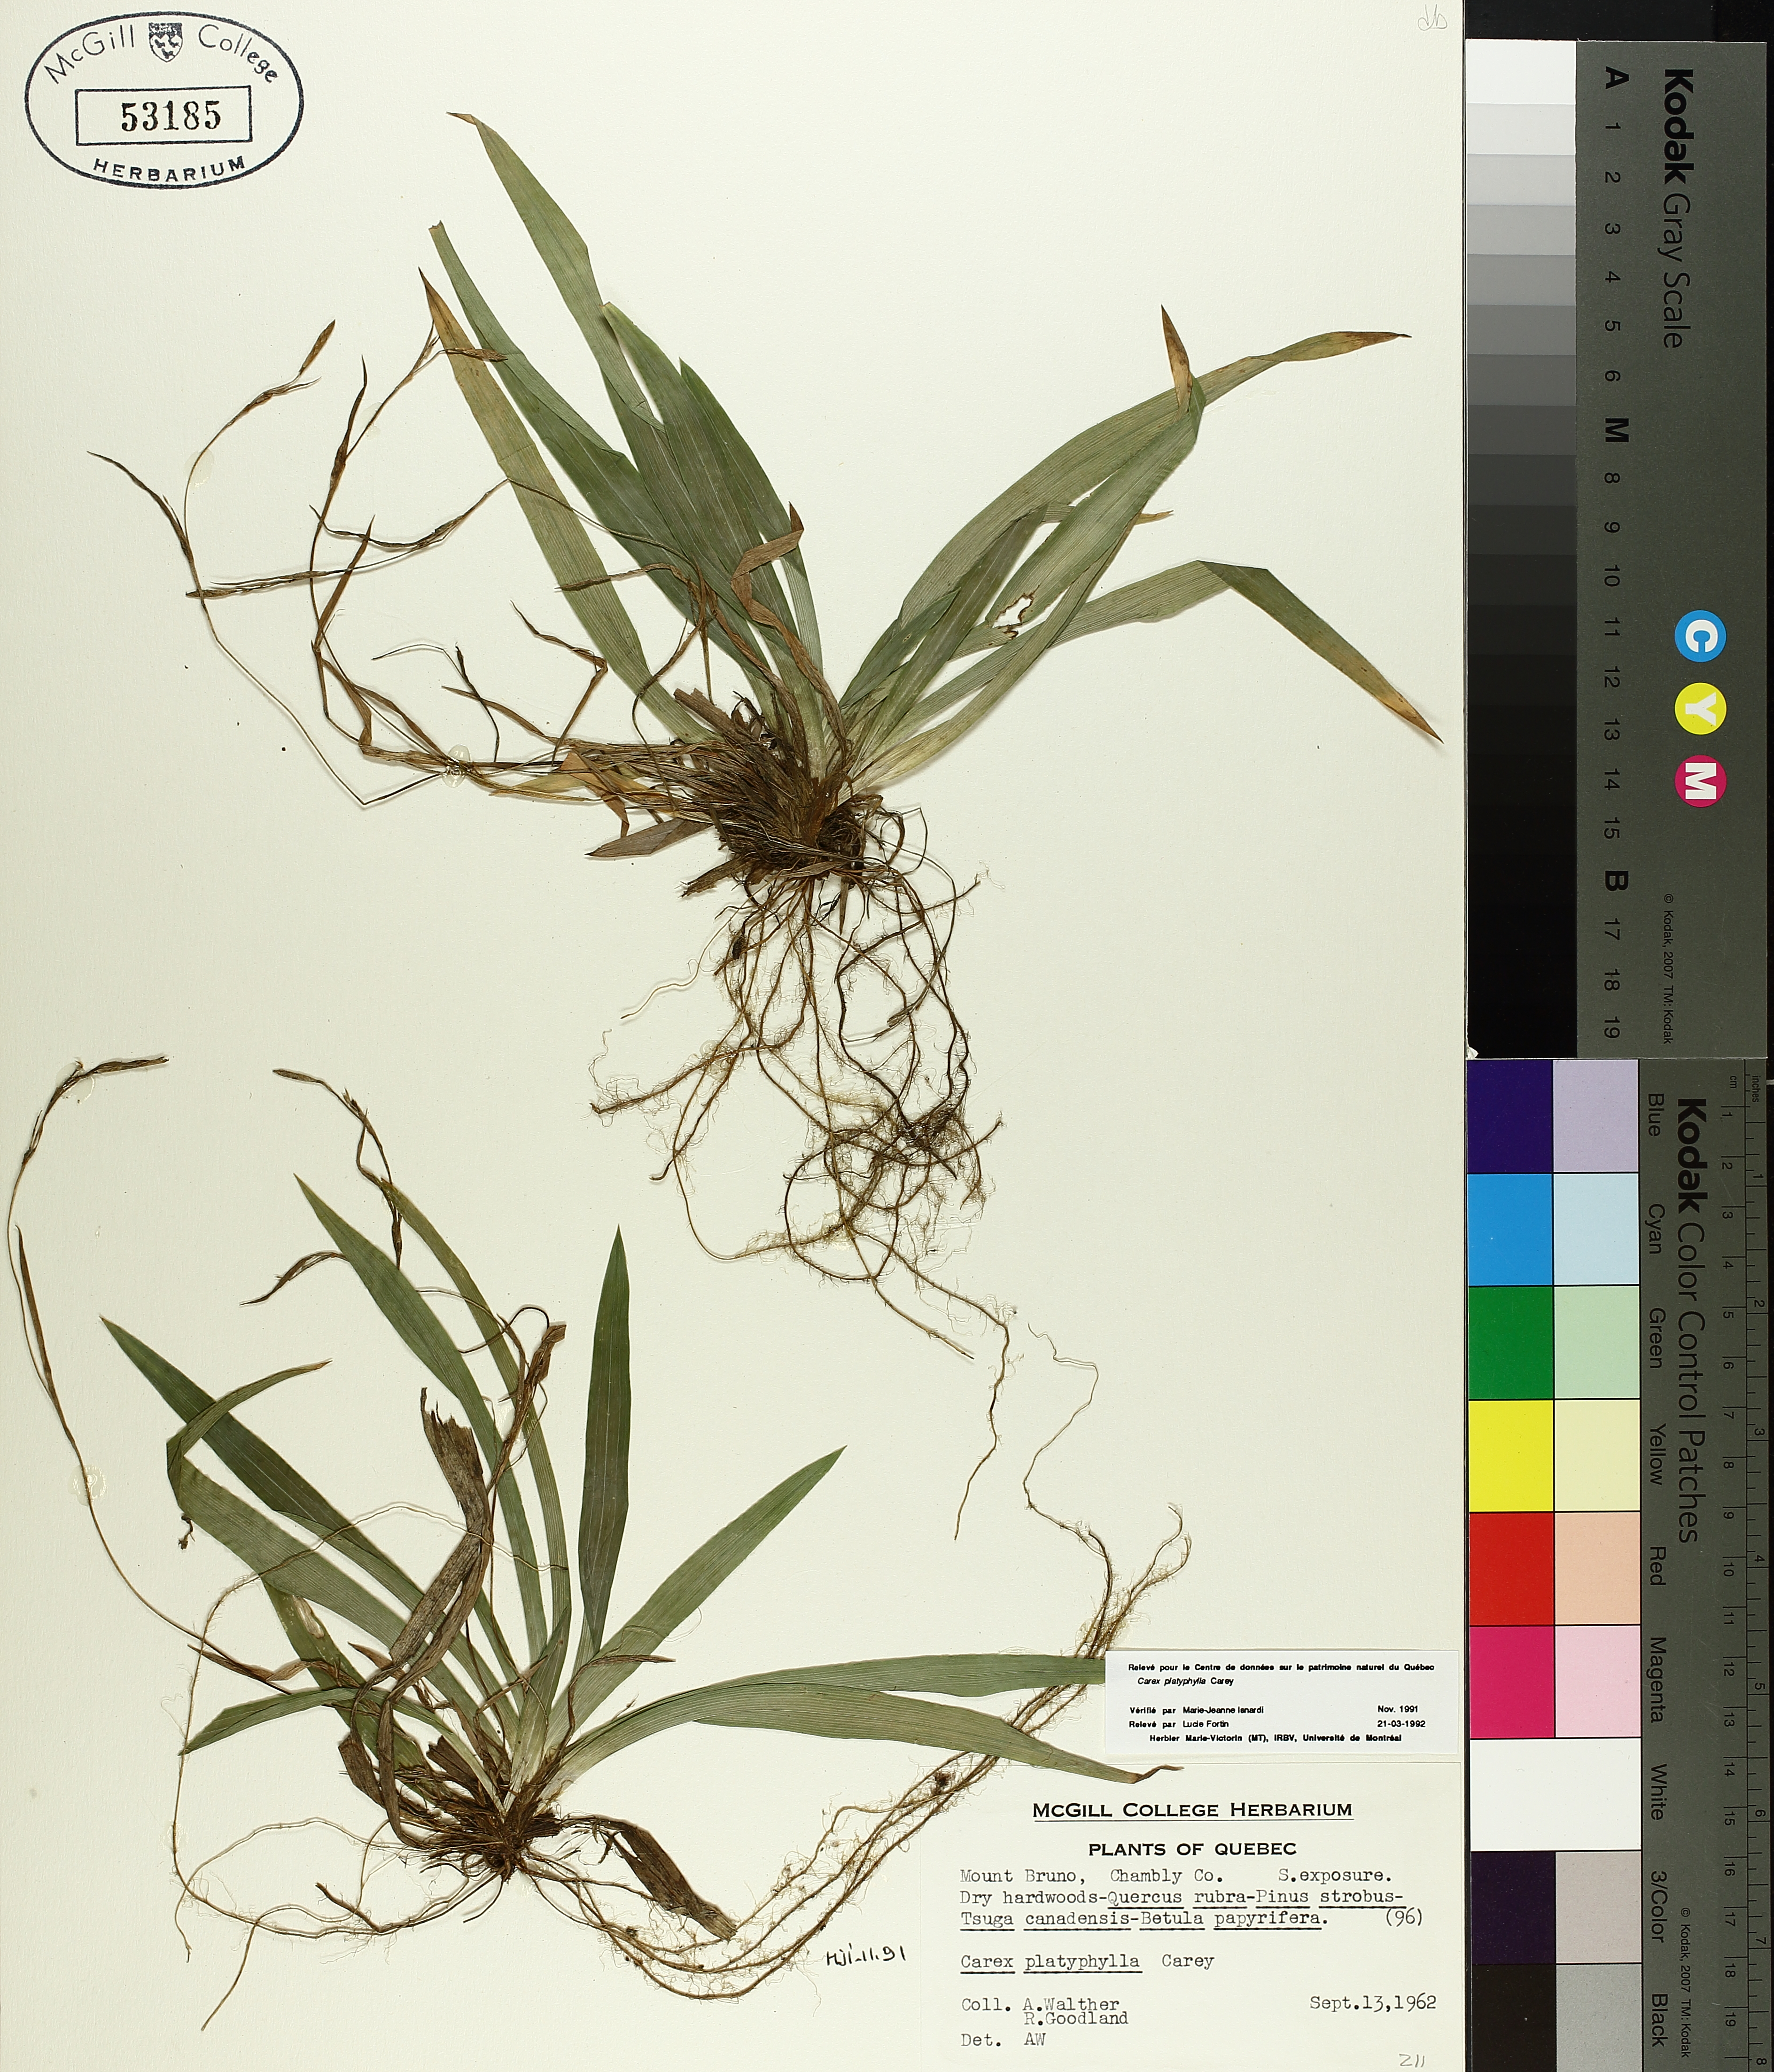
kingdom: Plantae
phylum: Tracheophyta
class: Liliopsida
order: Poales
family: Cyperaceae
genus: Carex
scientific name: Carex platyphylla
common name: Broad-leaved sedge
